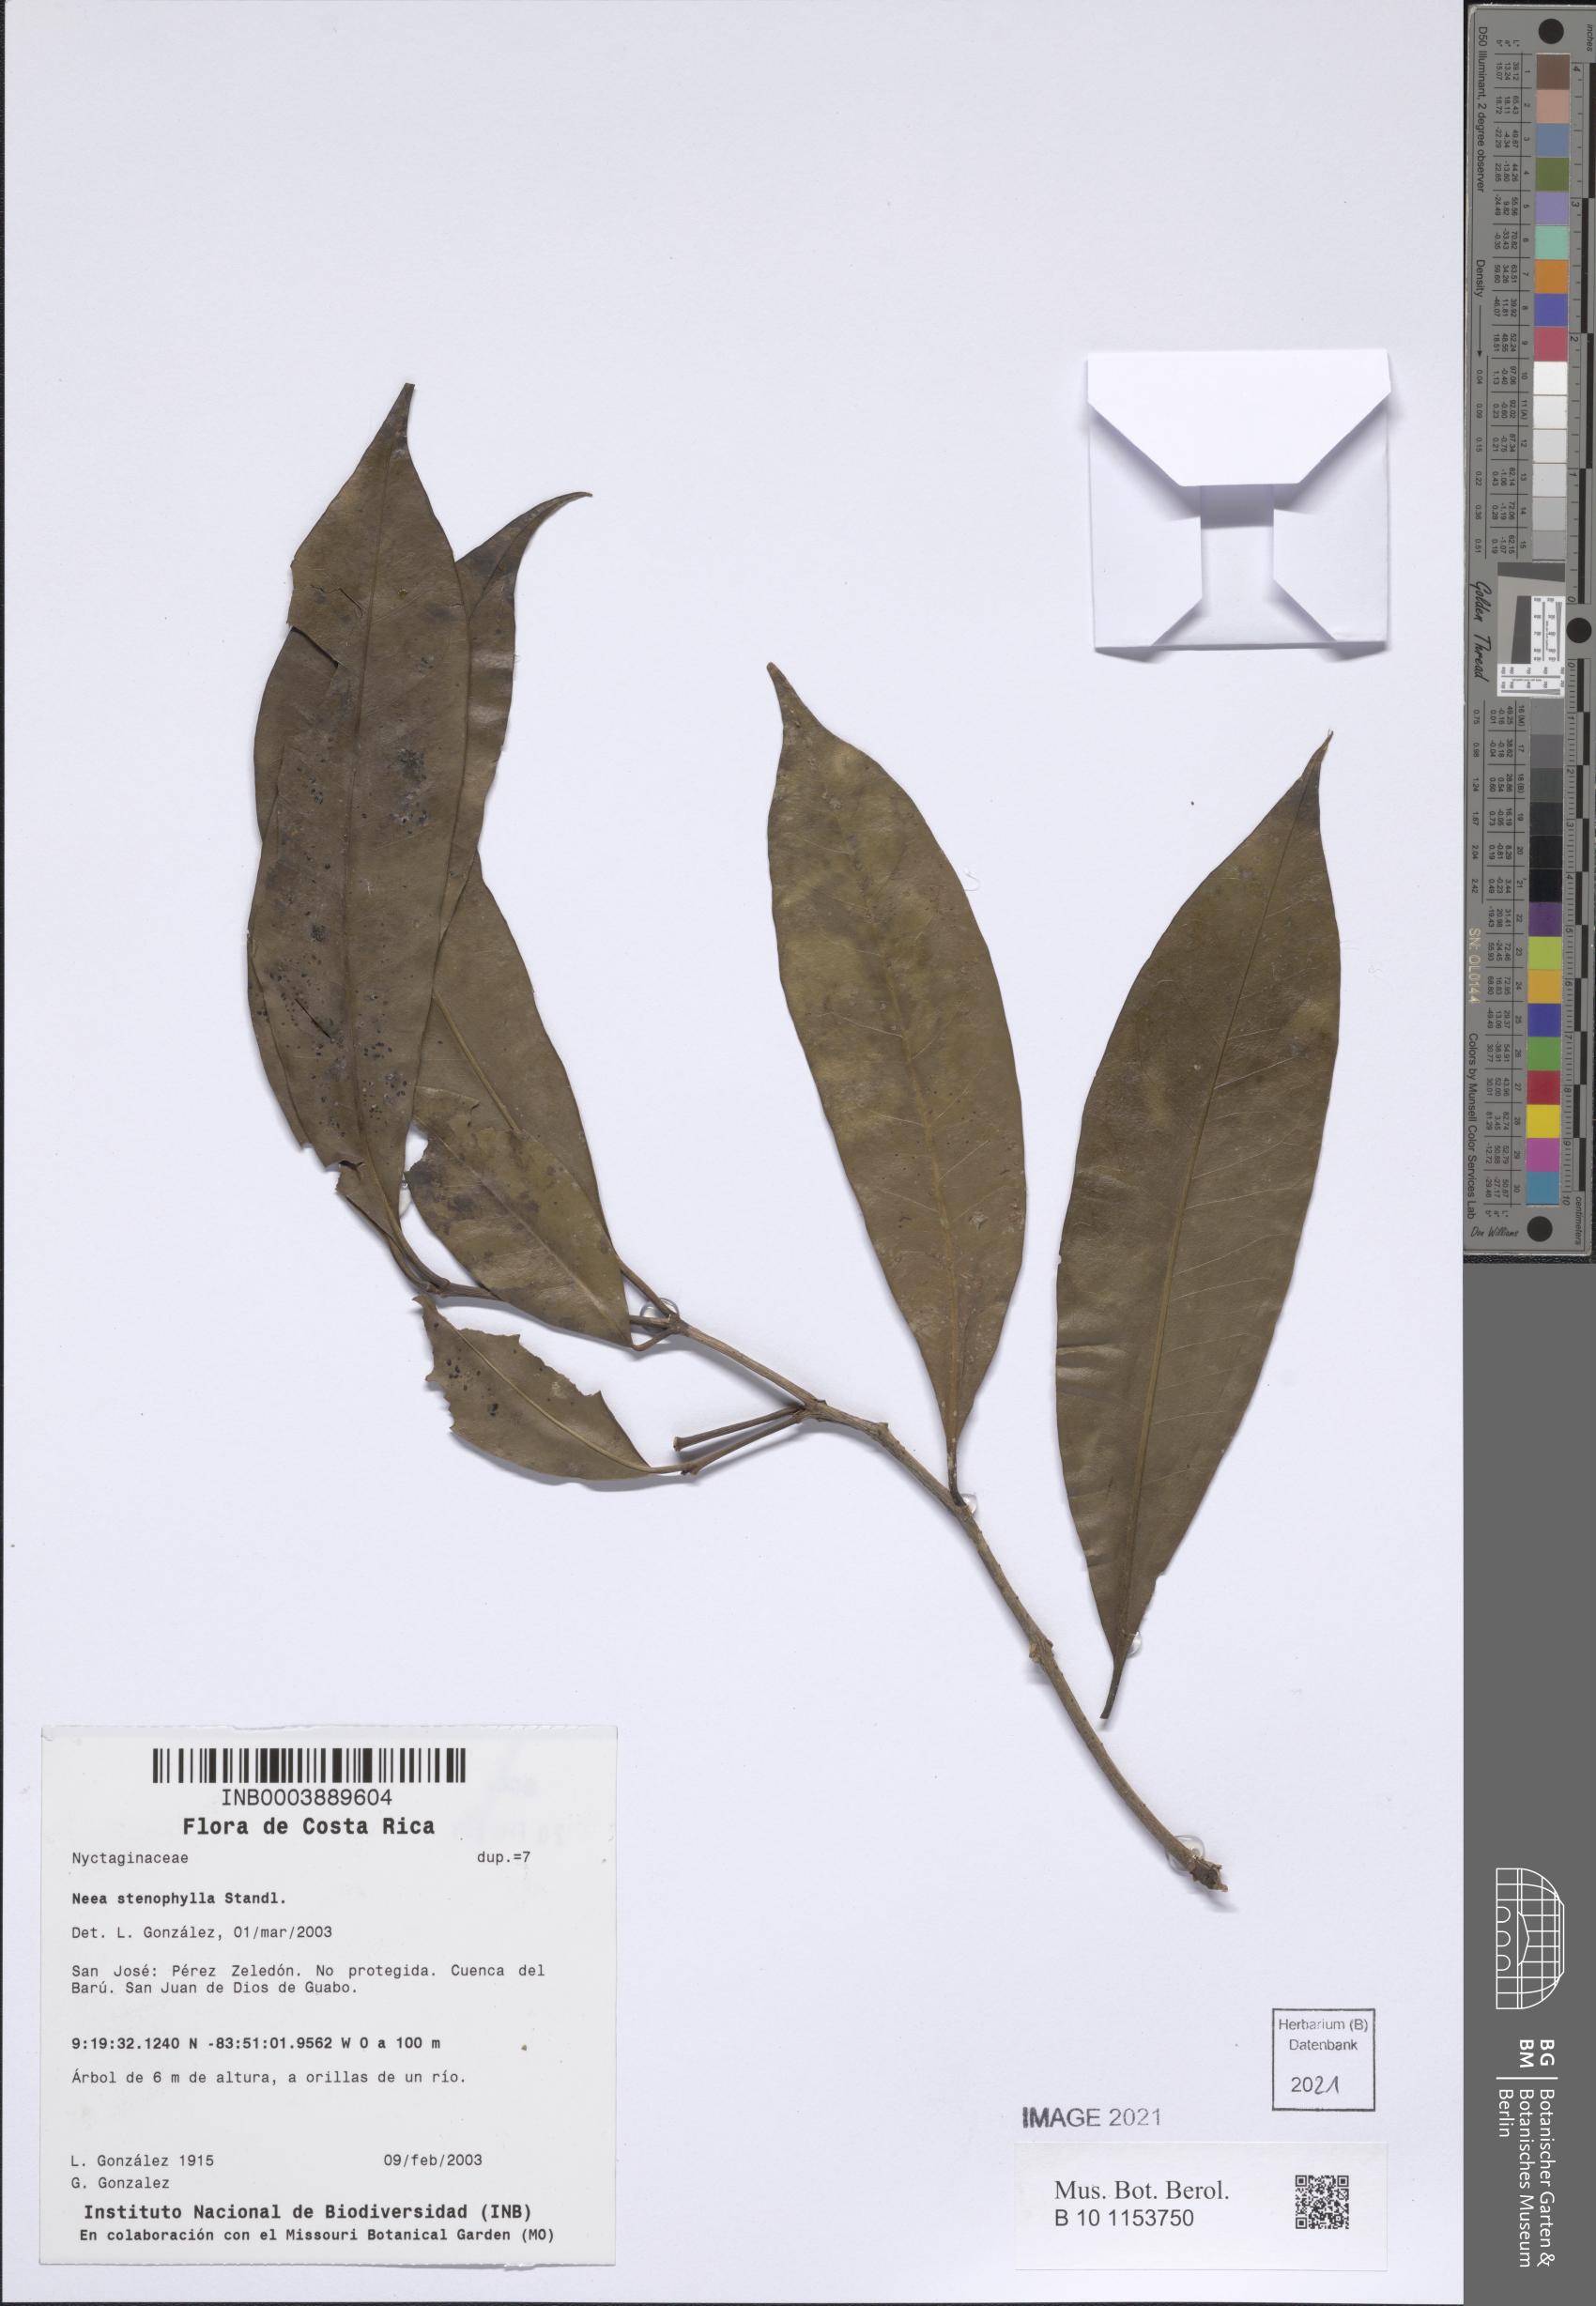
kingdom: Plantae
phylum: Tracheophyta
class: Magnoliopsida
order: Caryophyllales
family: Nyctaginaceae
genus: Guapira
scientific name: Guapira costaricana
